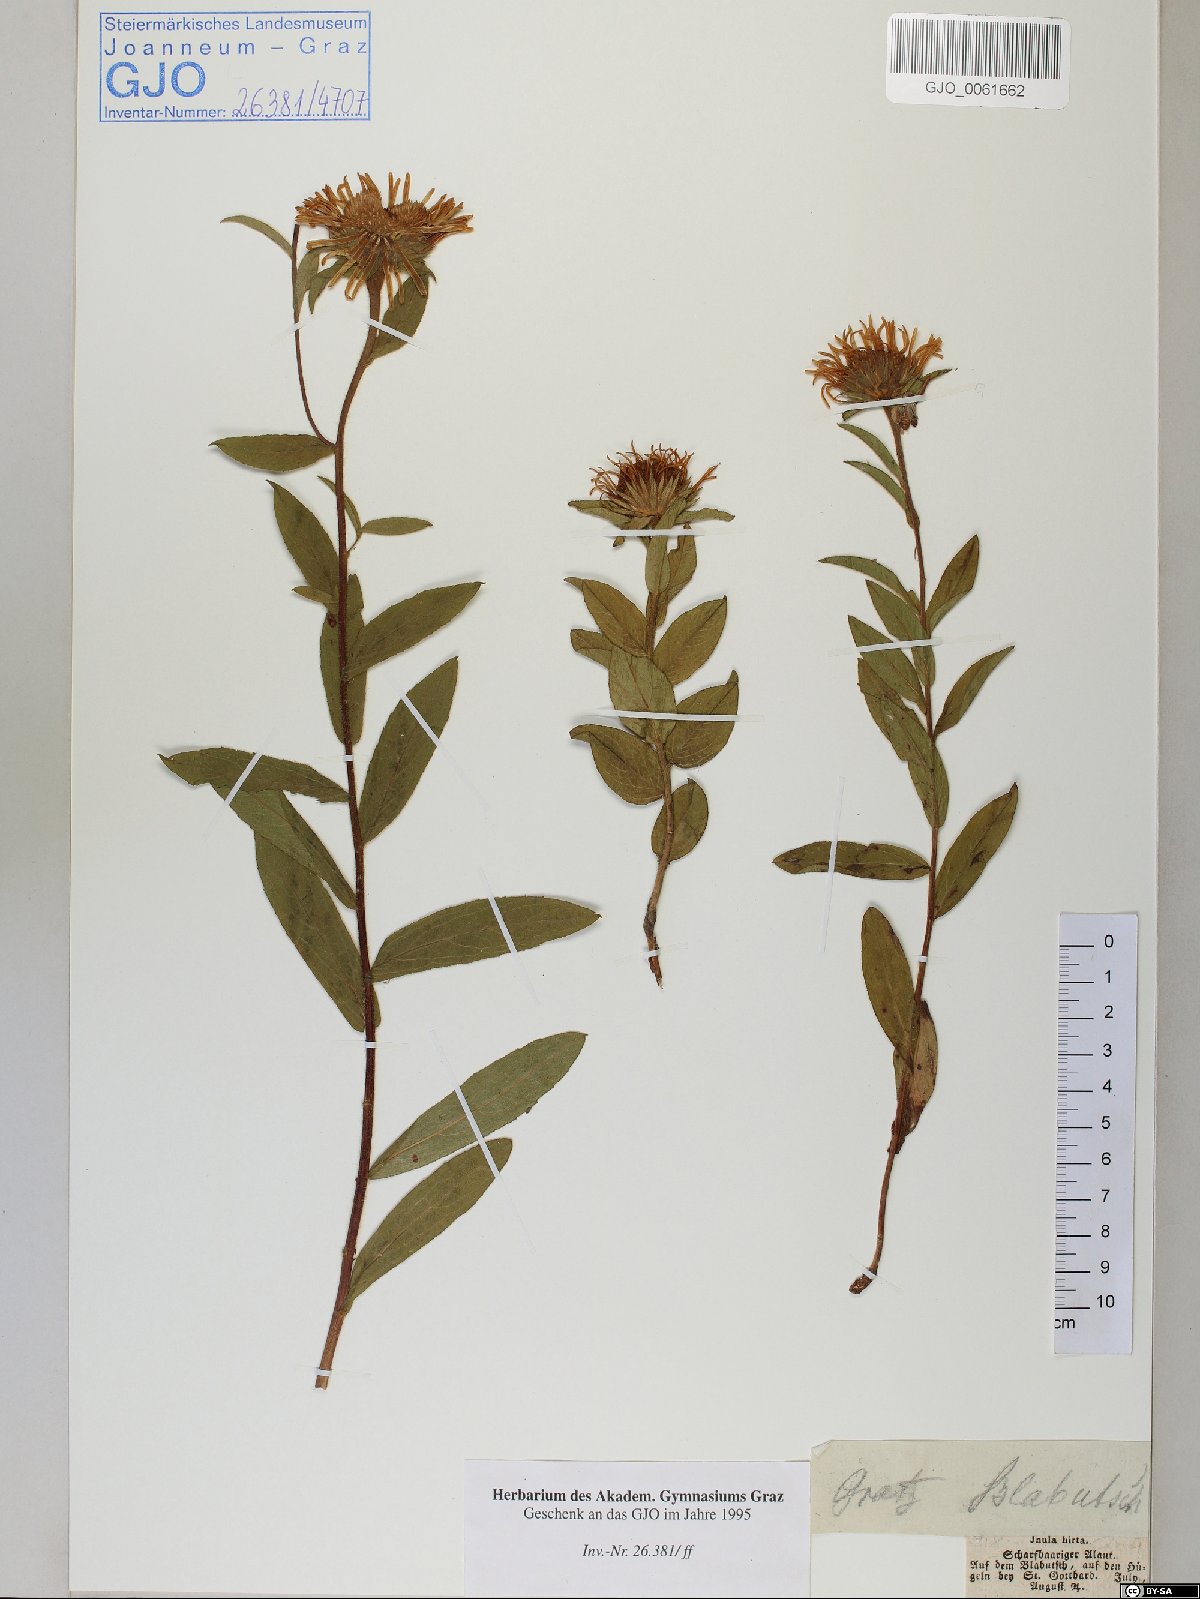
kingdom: Plantae
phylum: Tracheophyta
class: Magnoliopsida
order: Asterales
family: Asteraceae
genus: Pentanema
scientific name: Pentanema hirtum
